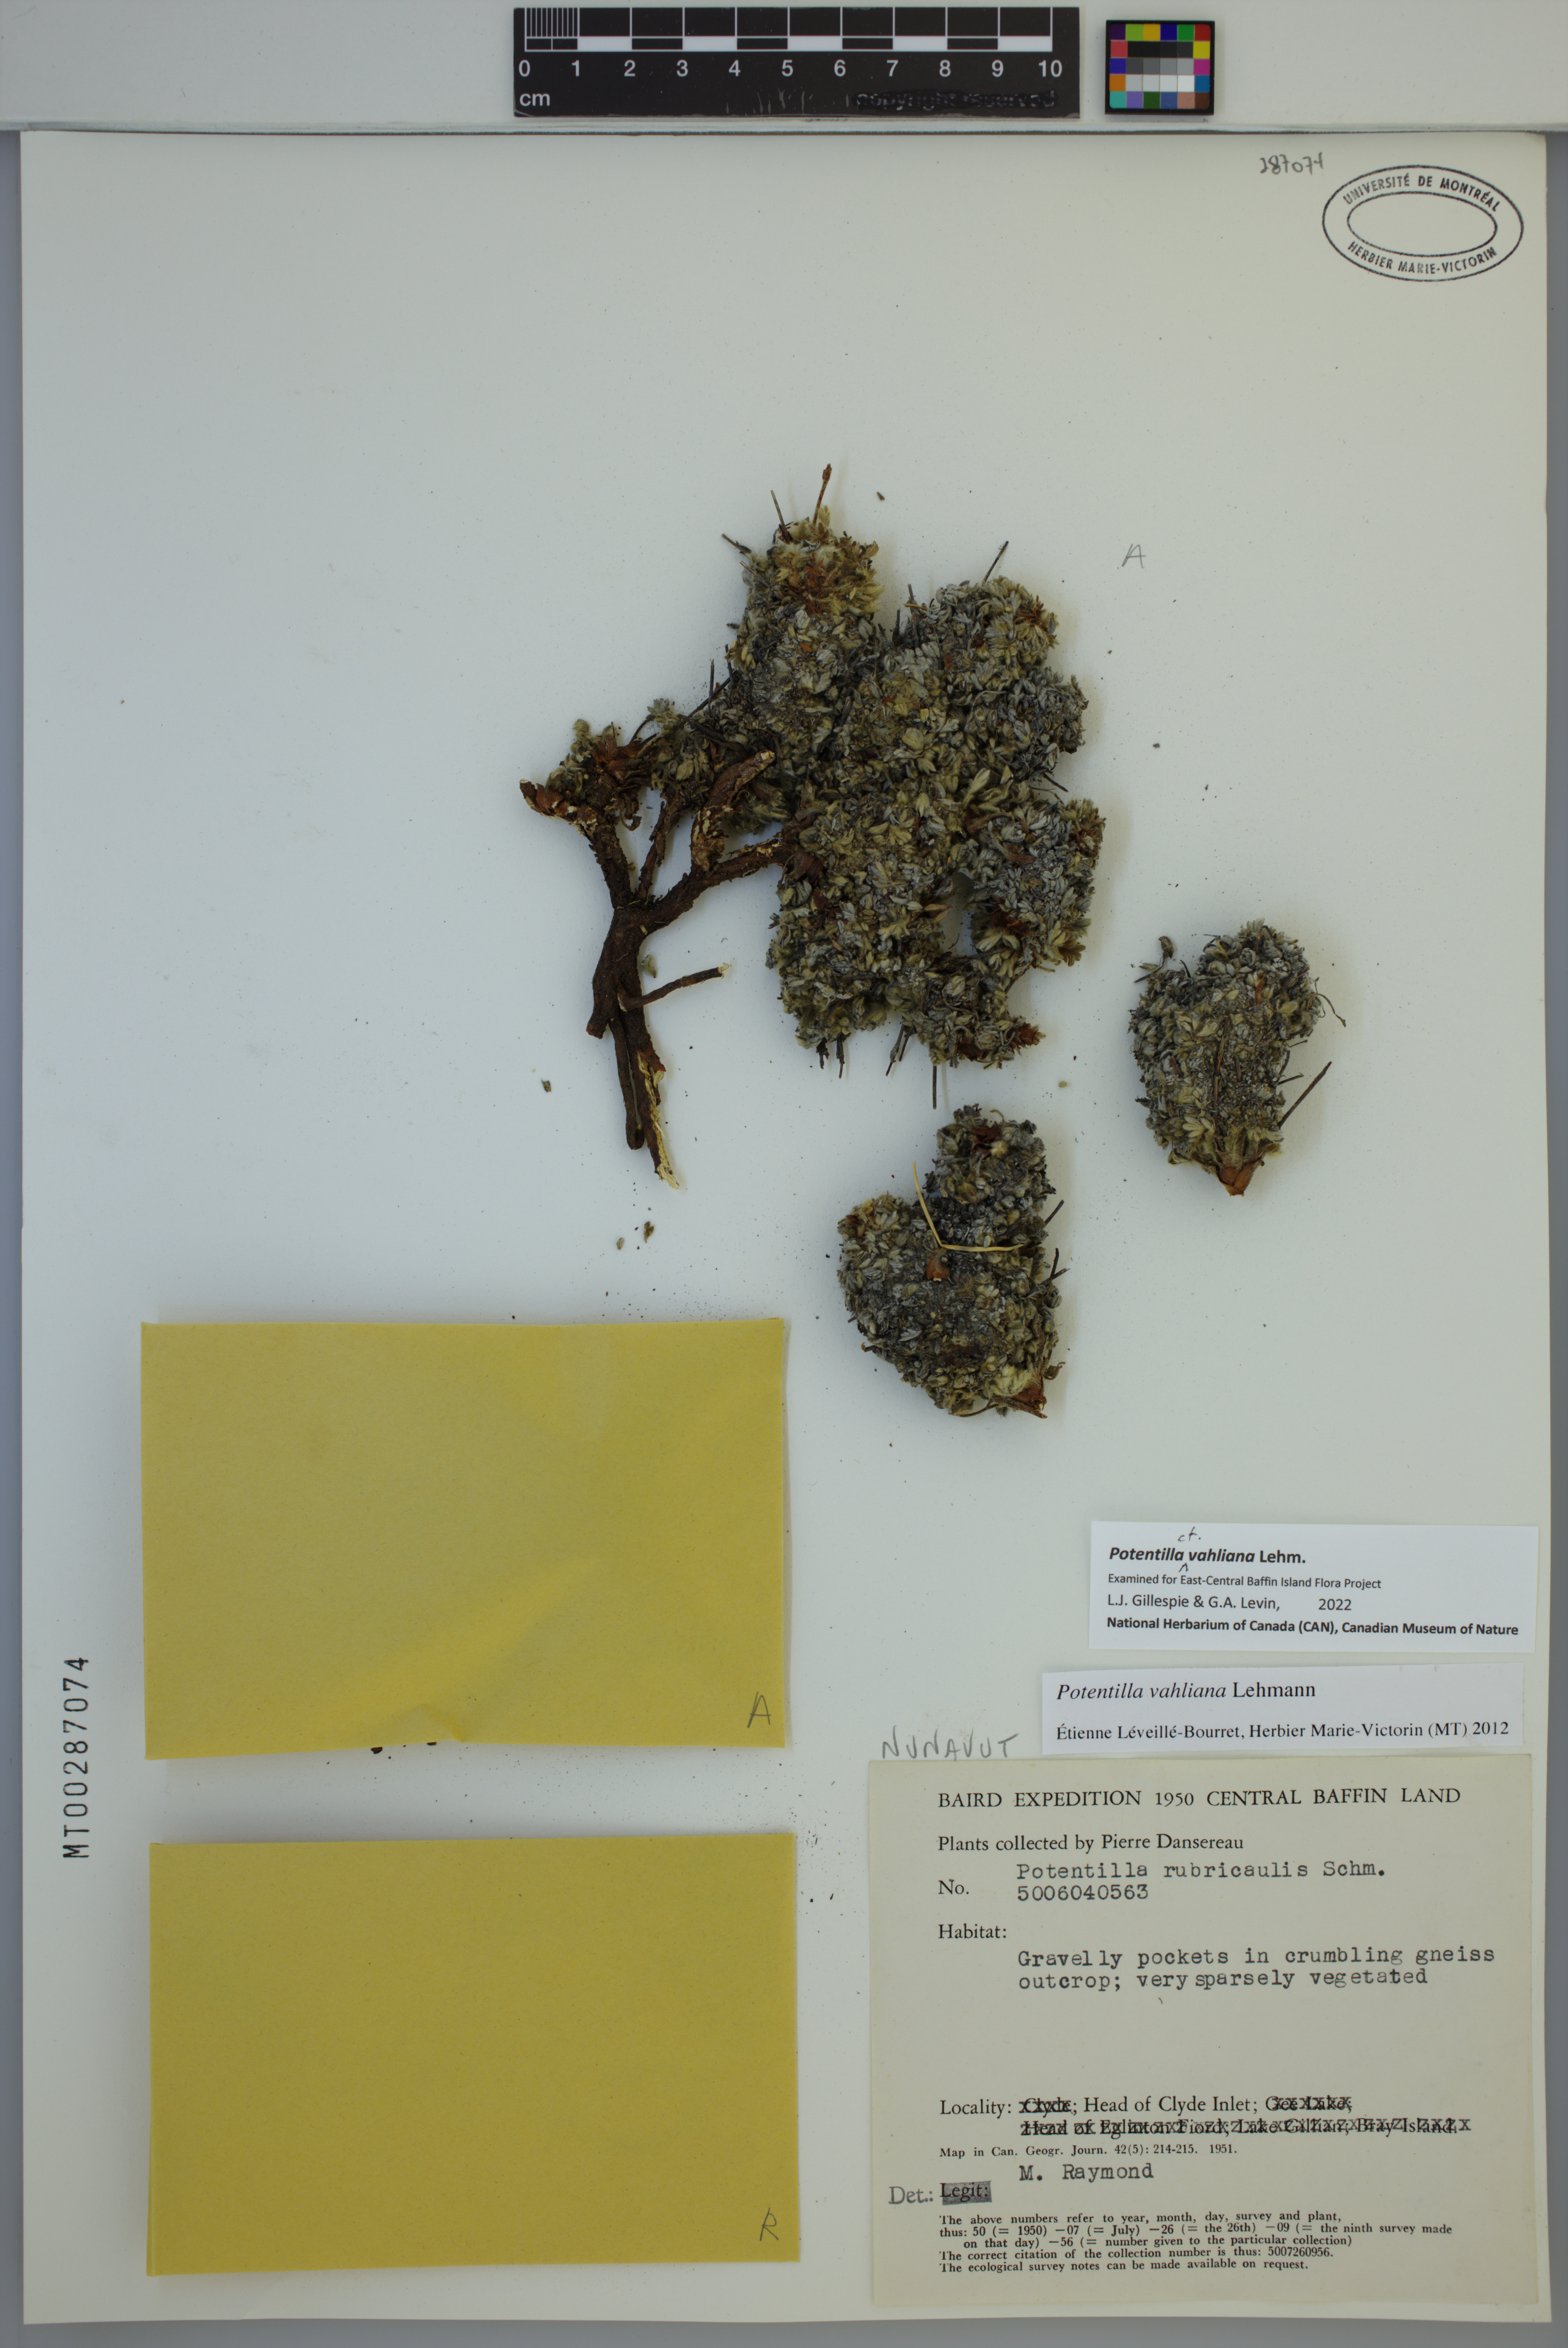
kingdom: Plantae
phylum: Tracheophyta
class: Magnoliopsida
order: Rosales
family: Rosaceae
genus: Potentilla
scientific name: Potentilla vahliana
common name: Vahl's cinquefoil
